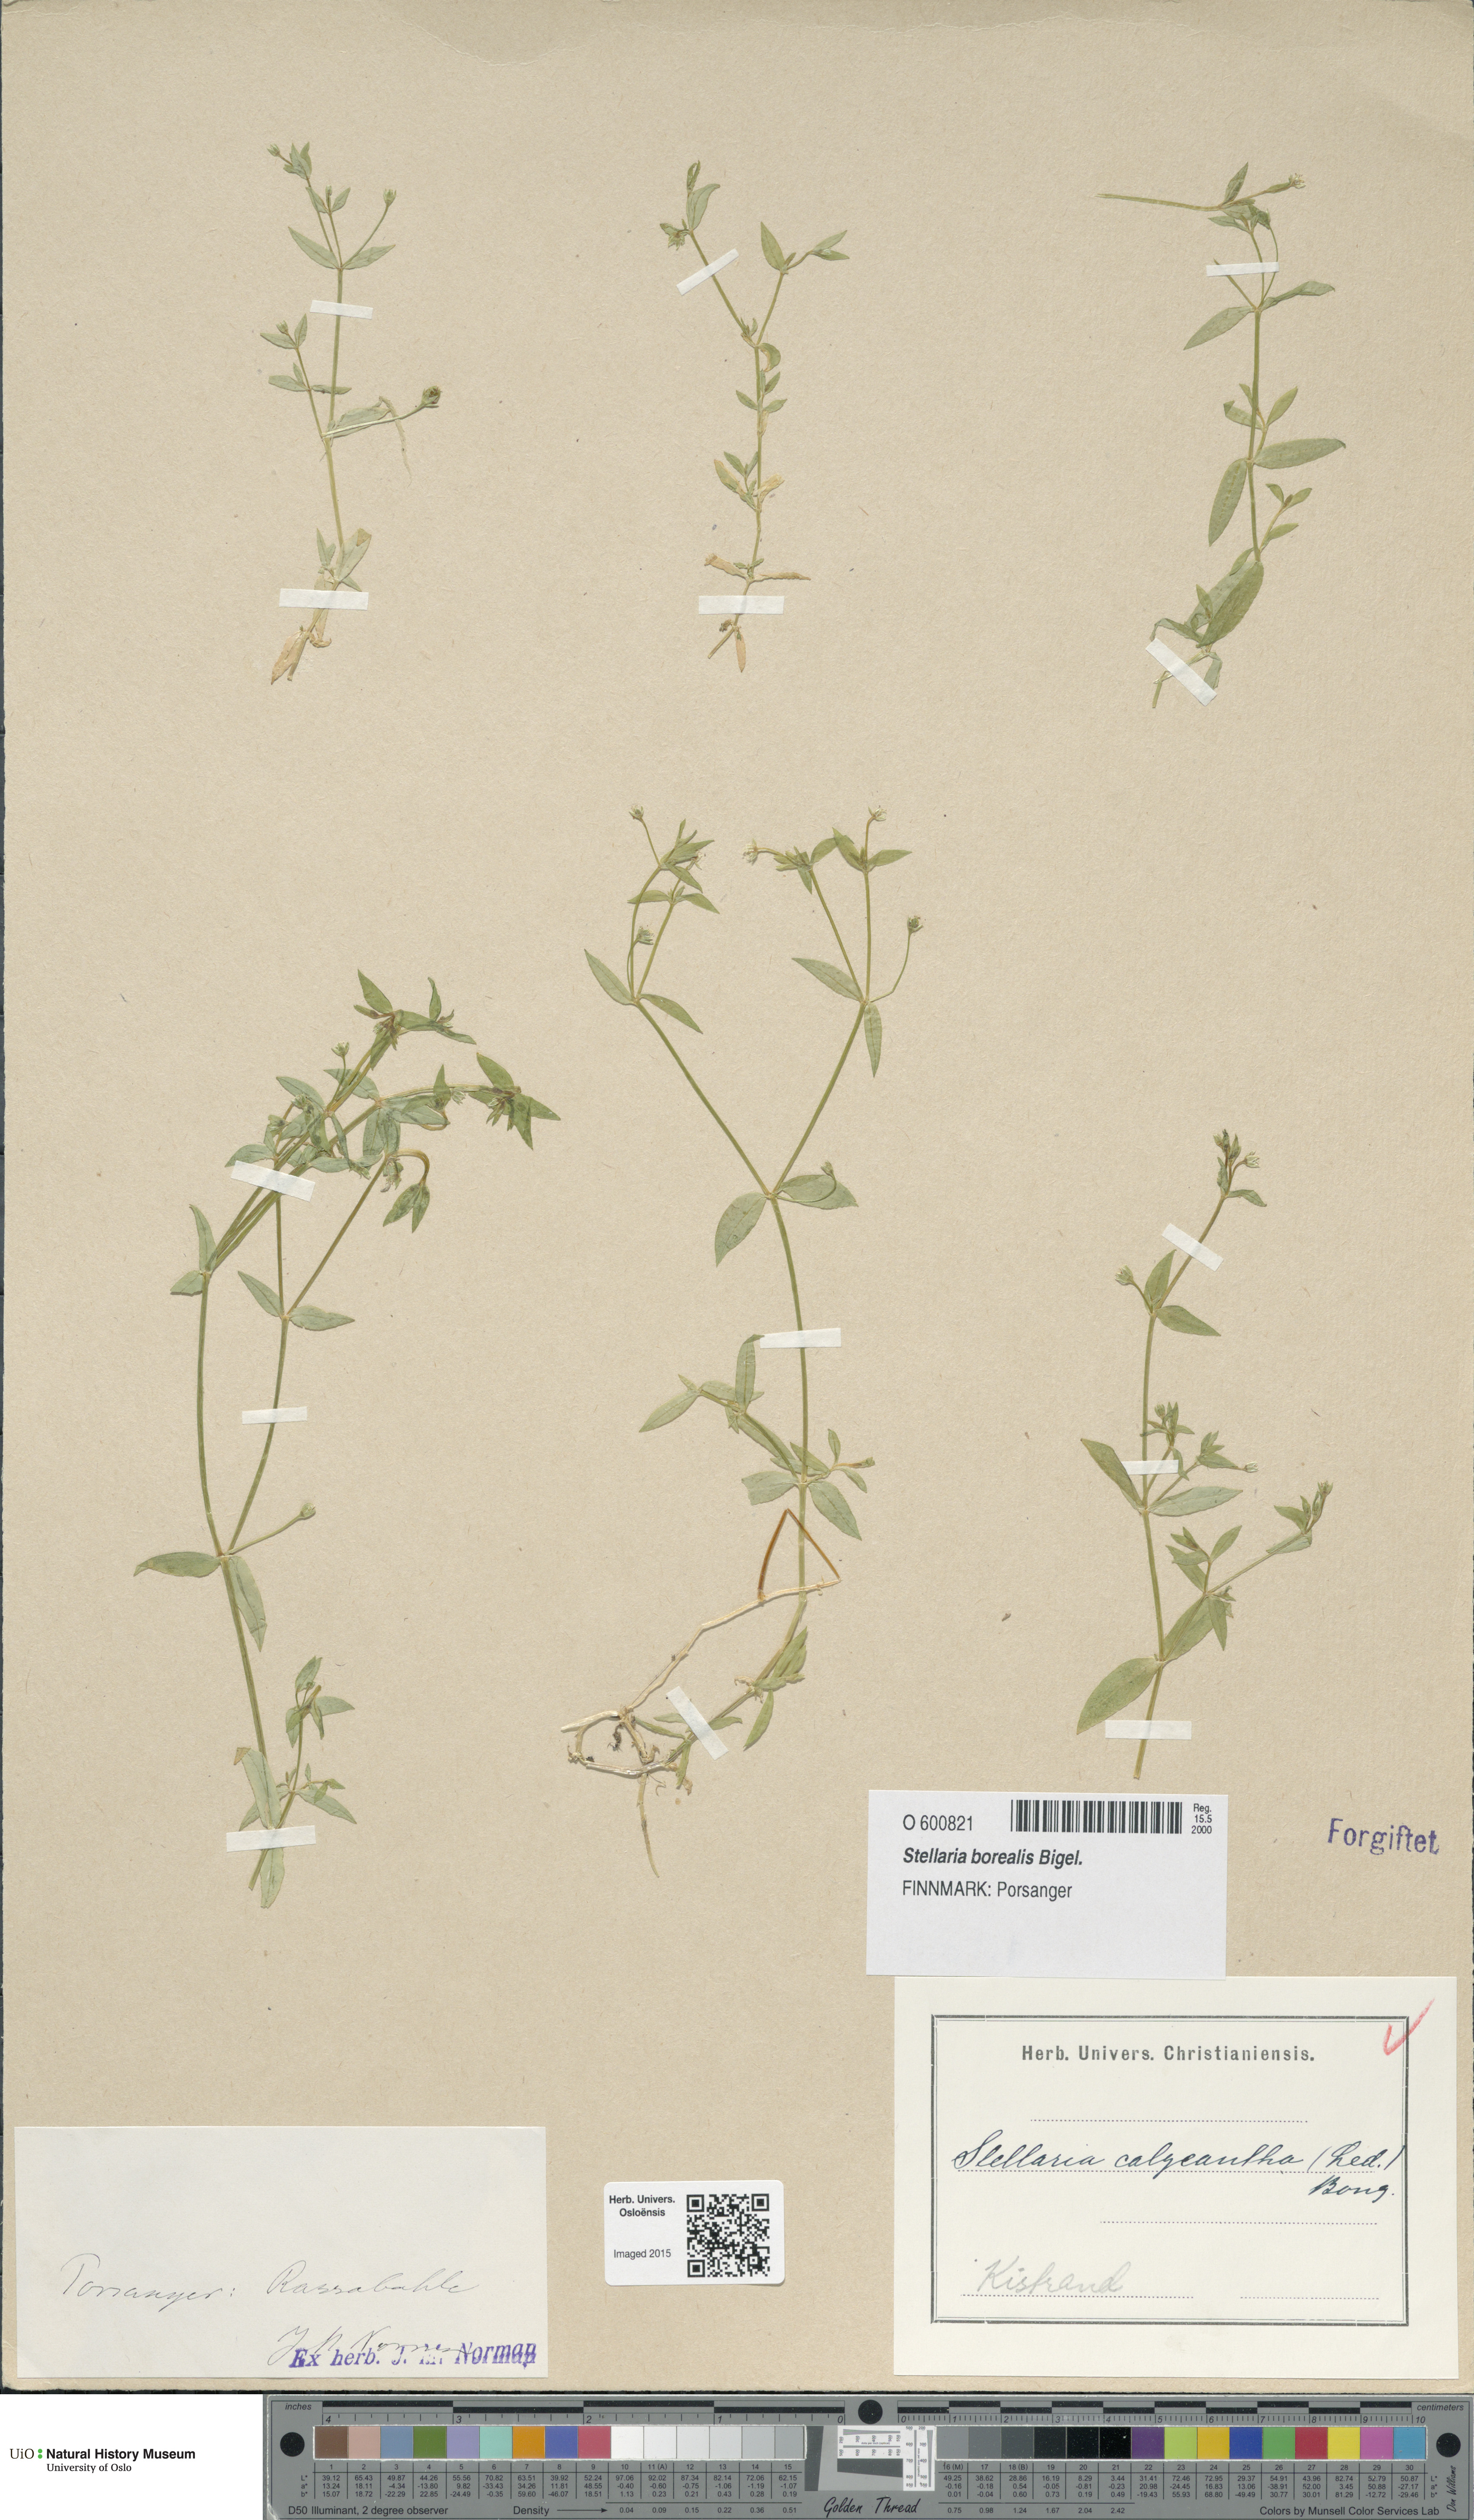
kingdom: Plantae
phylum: Tracheophyta
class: Magnoliopsida
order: Caryophyllales
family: Caryophyllaceae
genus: Stellaria
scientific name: Stellaria borealis
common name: Boreal starwort
